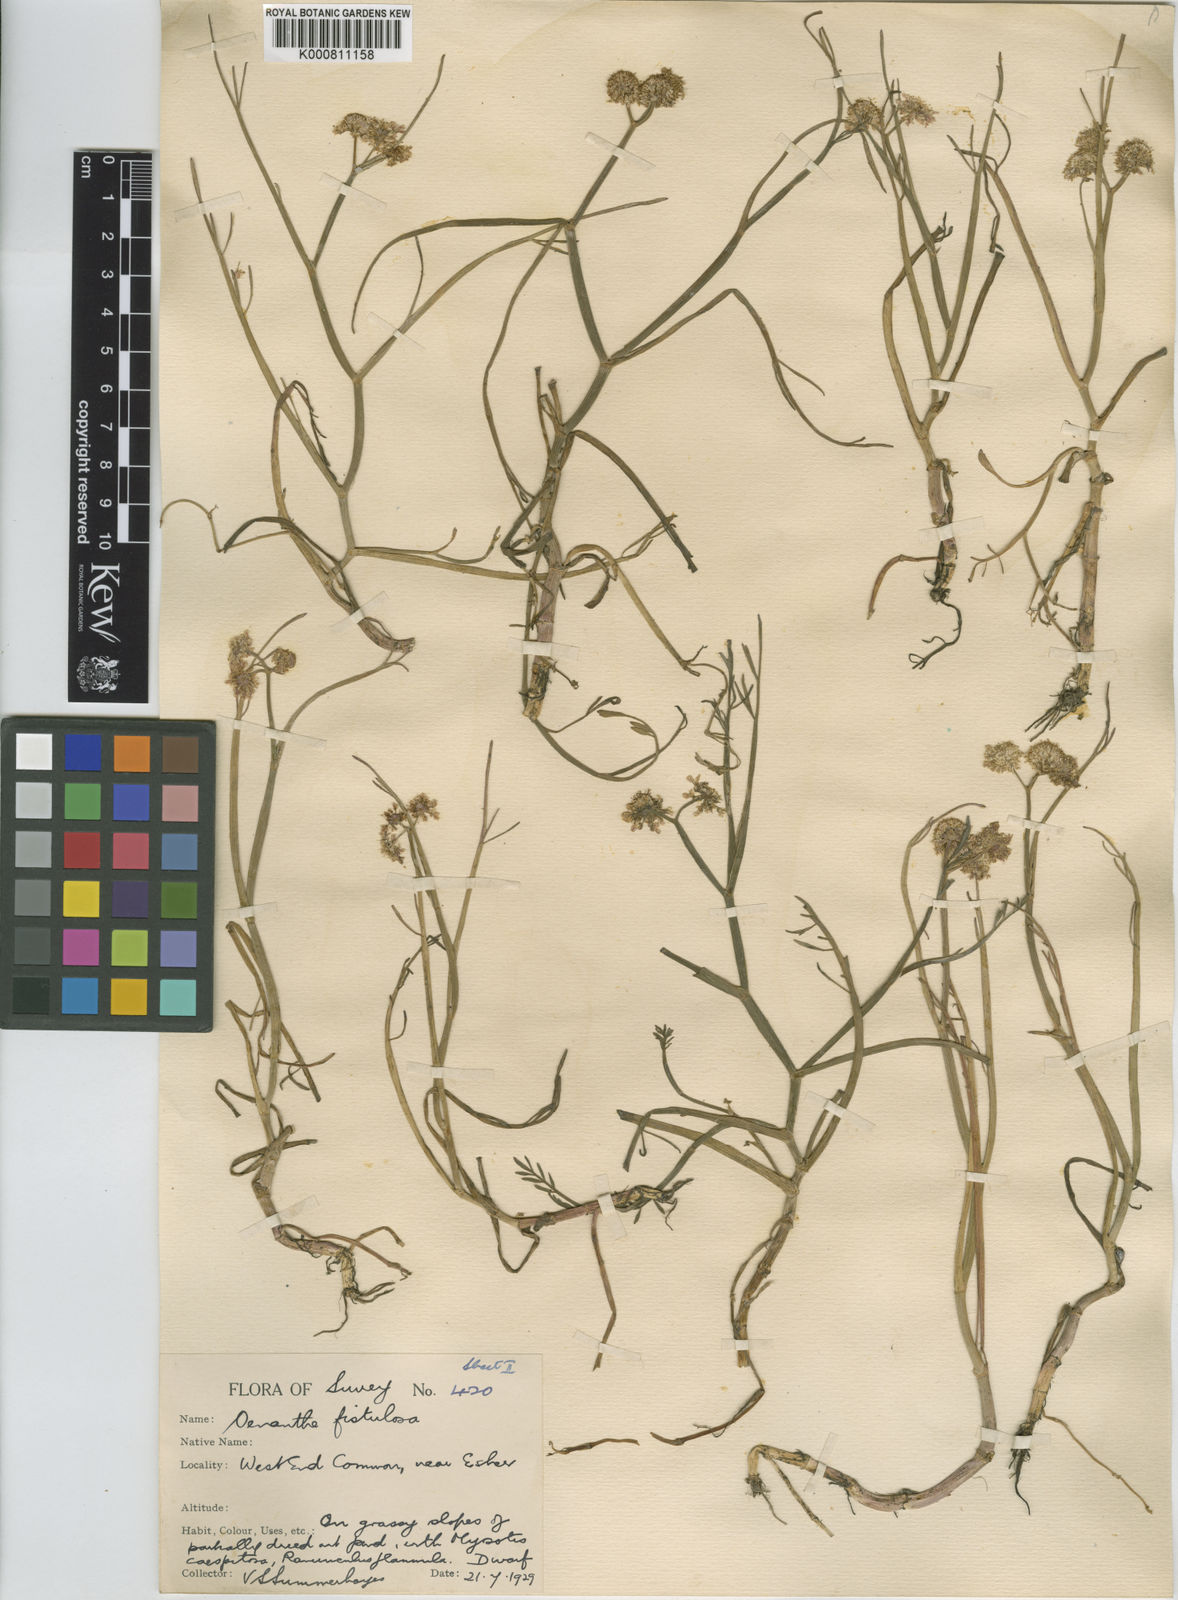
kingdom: Plantae
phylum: Tracheophyta
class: Magnoliopsida
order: Apiales
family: Apiaceae
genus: Oenanthe
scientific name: Oenanthe fistulosa
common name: Tubular water-dropwort
